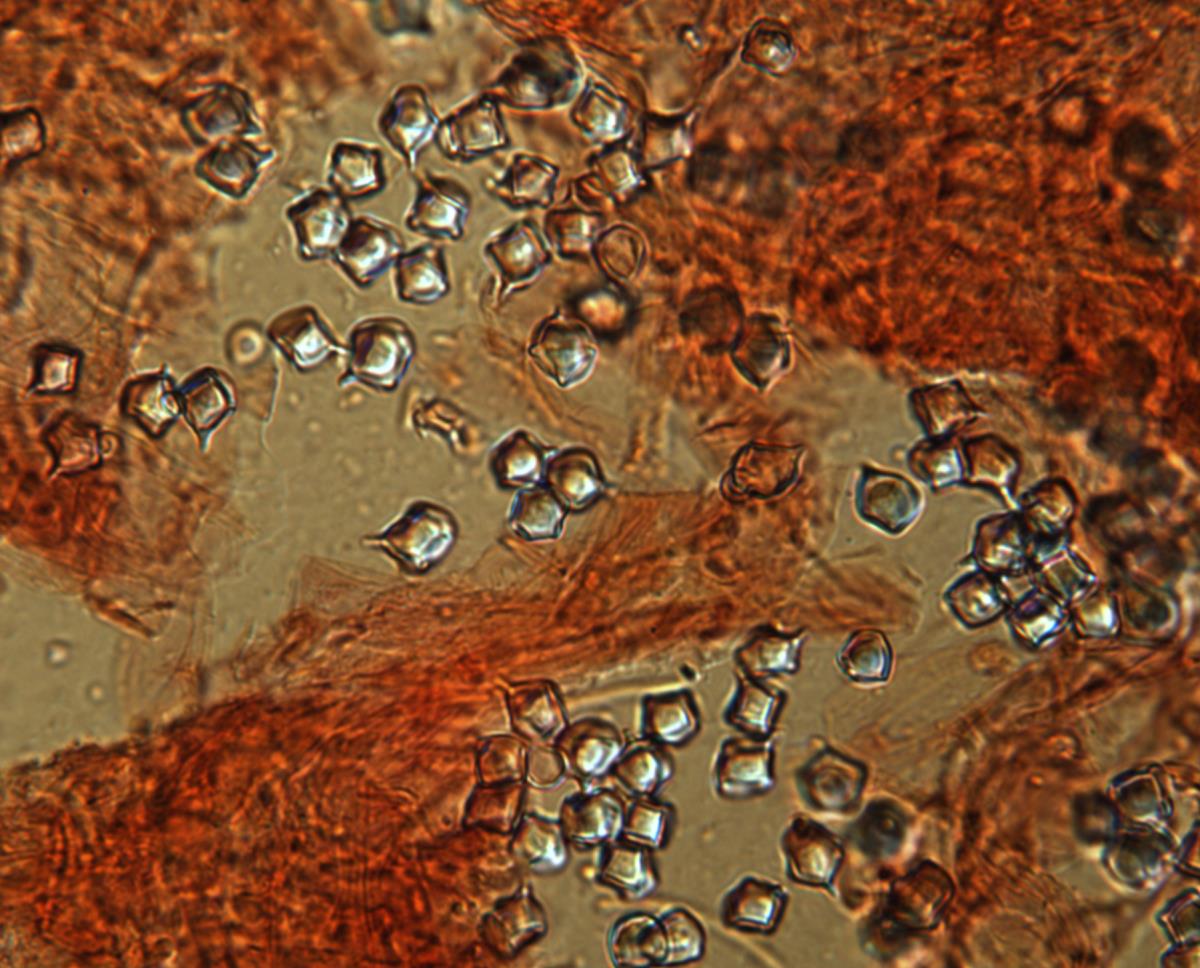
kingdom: Fungi
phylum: Basidiomycota
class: Agaricomycetes
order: Agaricales
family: Entolomataceae
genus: Entoloma
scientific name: Entoloma gasteromycetoides
